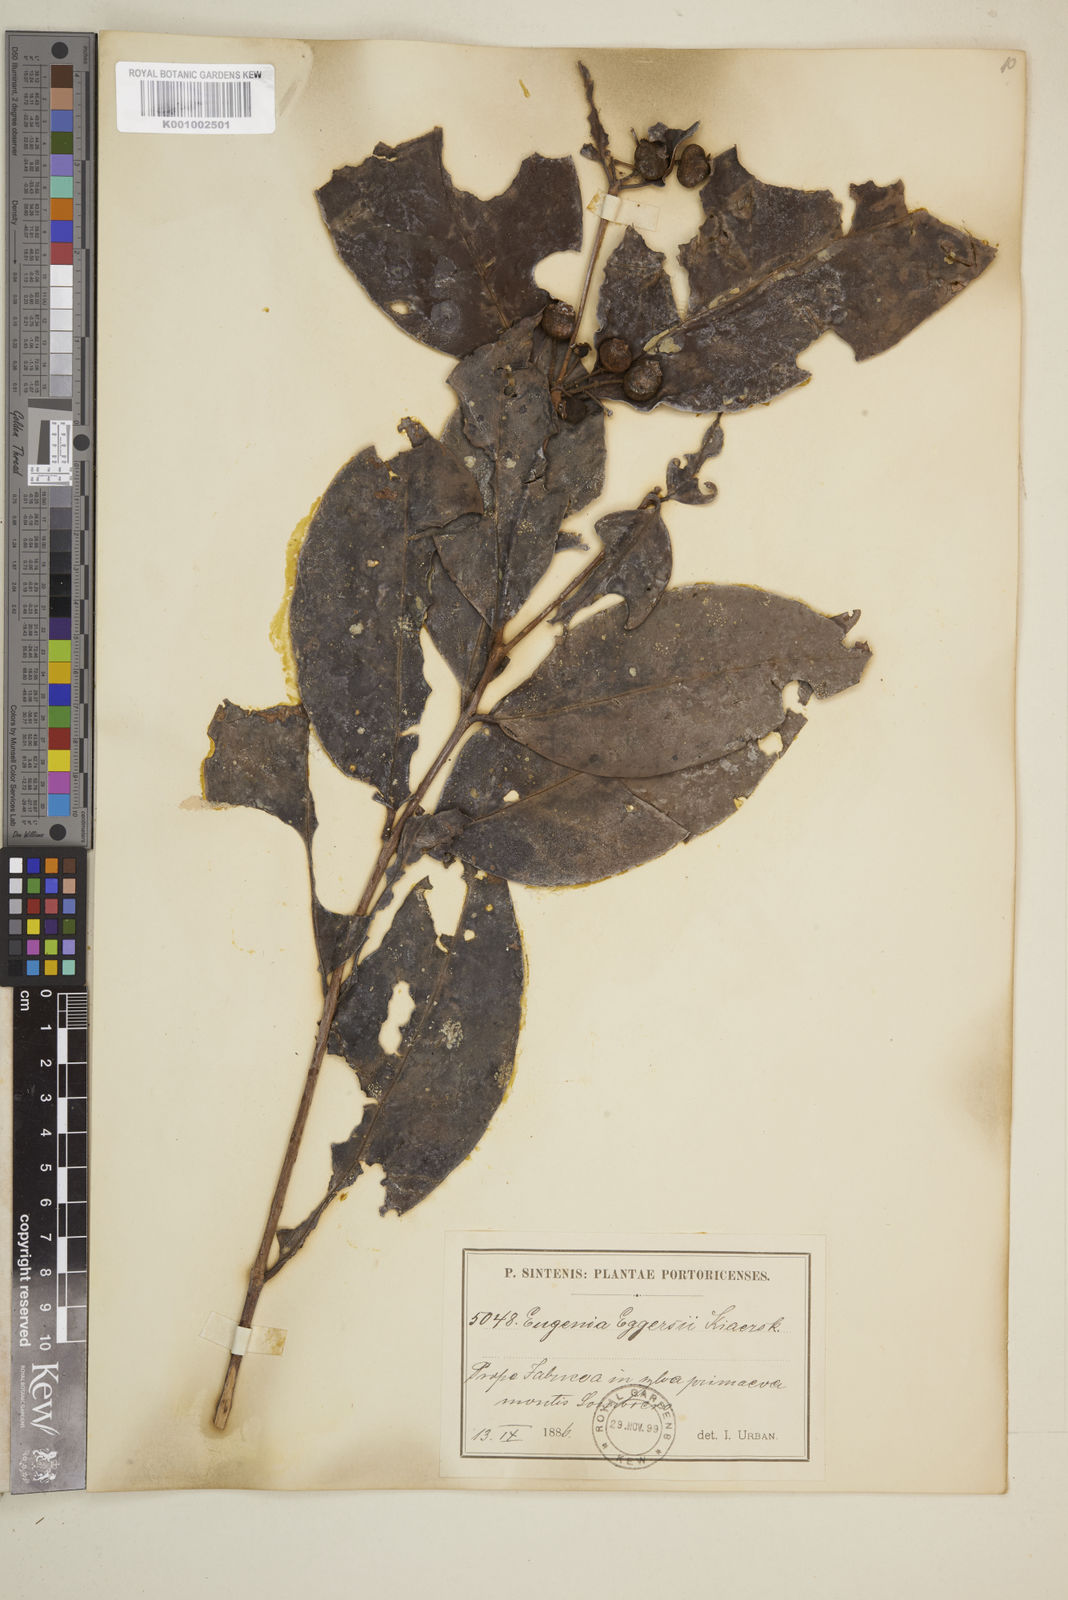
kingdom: Plantae
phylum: Tracheophyta
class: Magnoliopsida
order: Myrtales
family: Myrtaceae
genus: Eugenia
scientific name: Eugenia eggersii
